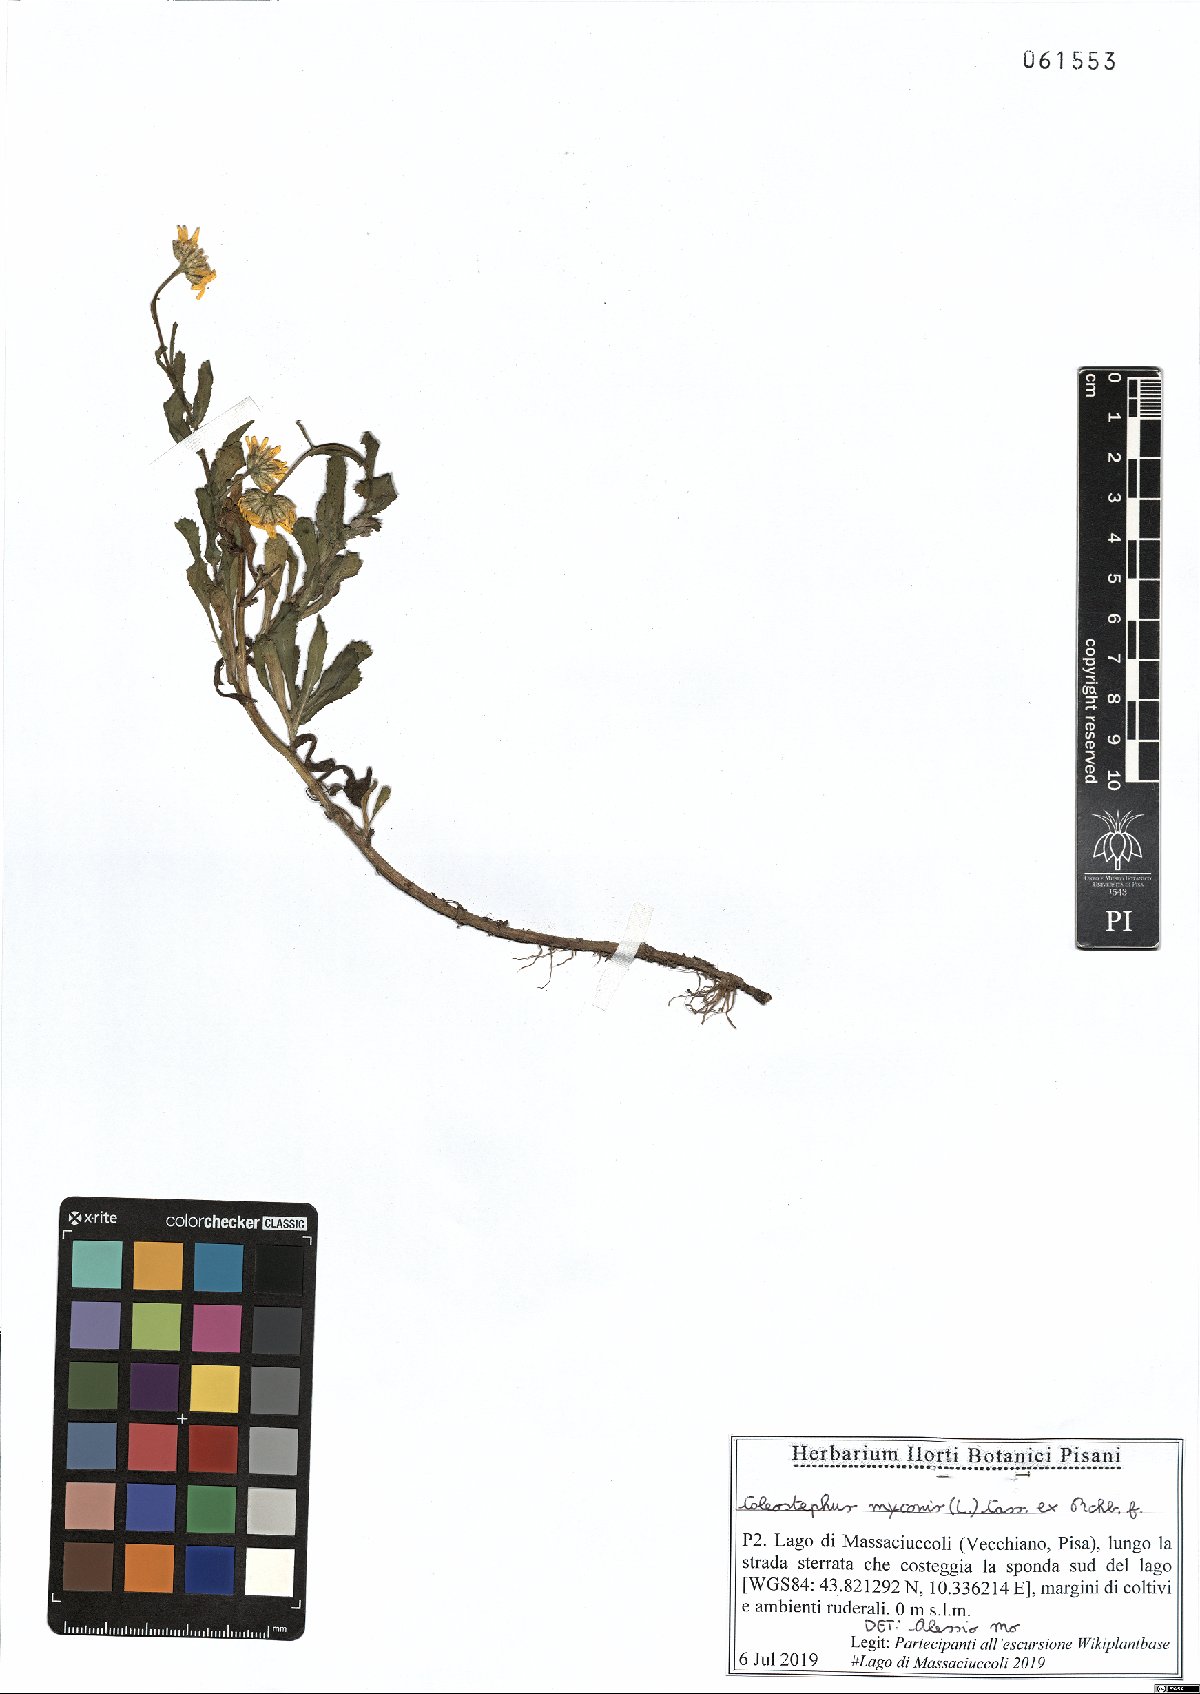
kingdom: Plantae
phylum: Tracheophyta
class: Magnoliopsida
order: Asterales
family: Asteraceae
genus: Coleostephus
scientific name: Coleostephus myconis
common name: Mediterranean marigold
